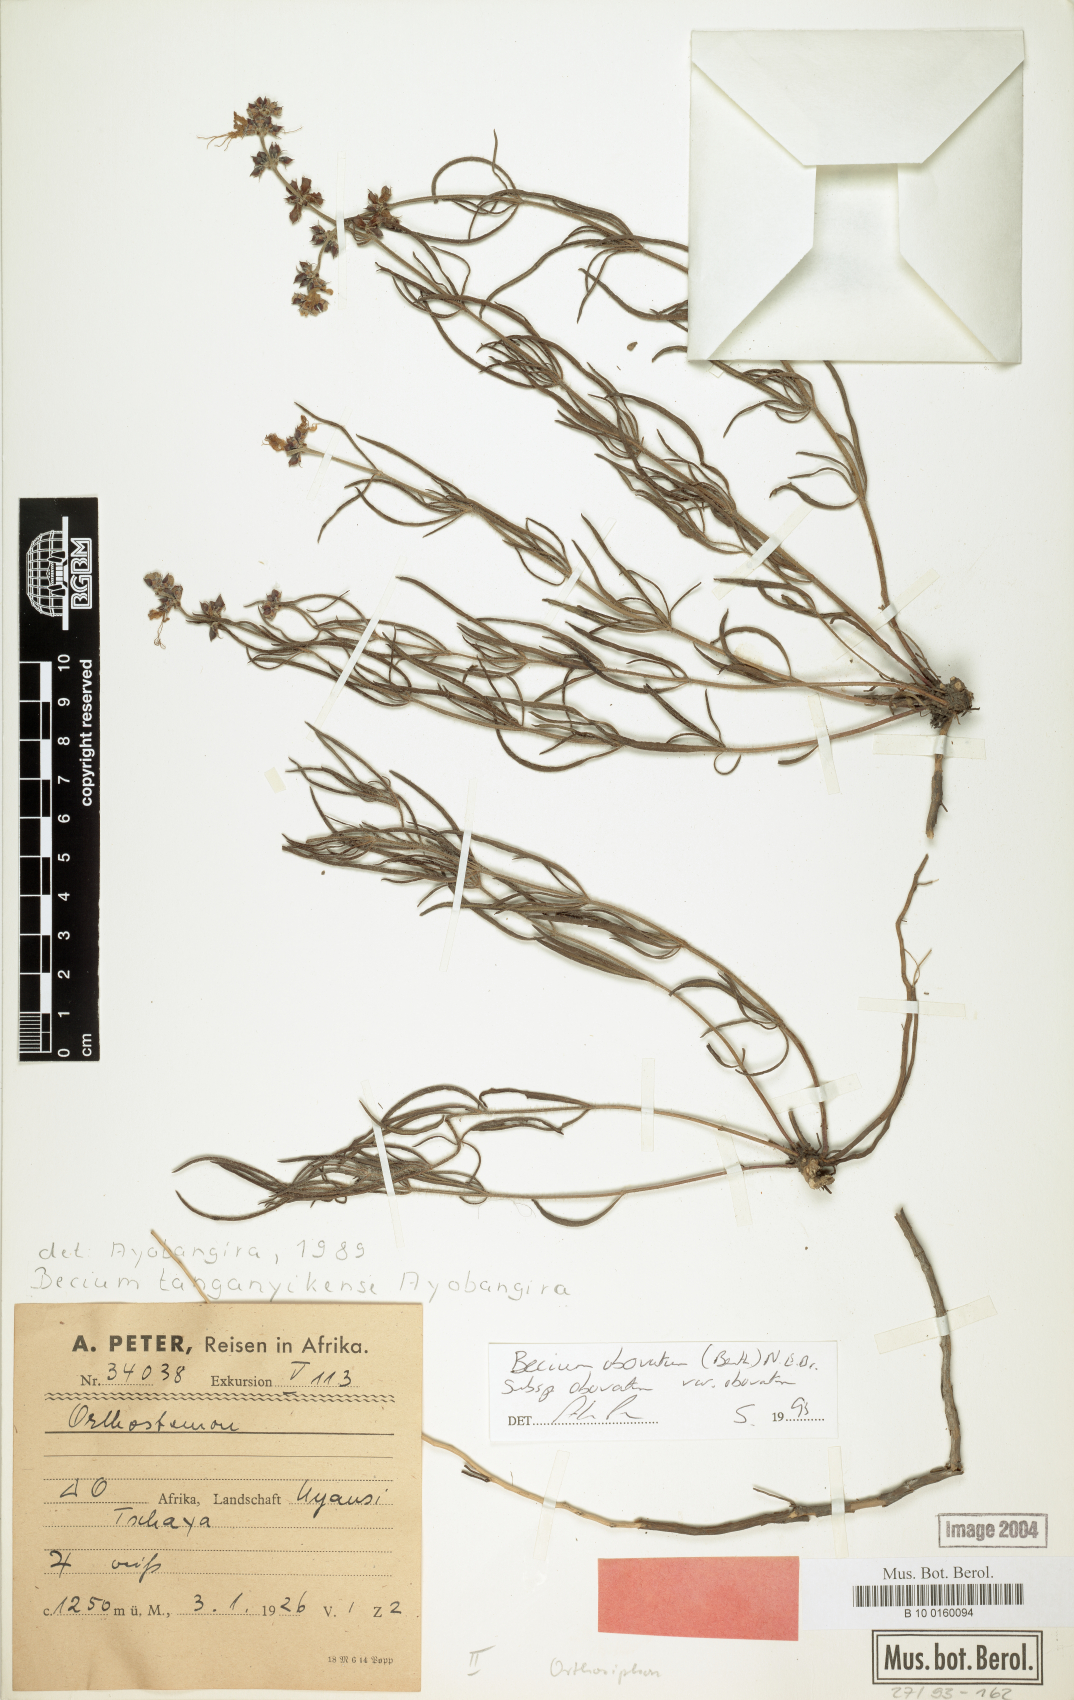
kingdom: Plantae
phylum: Tracheophyta
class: Magnoliopsida
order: Lamiales
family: Lamiaceae
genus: Ocimum
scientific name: Ocimum obovatum
